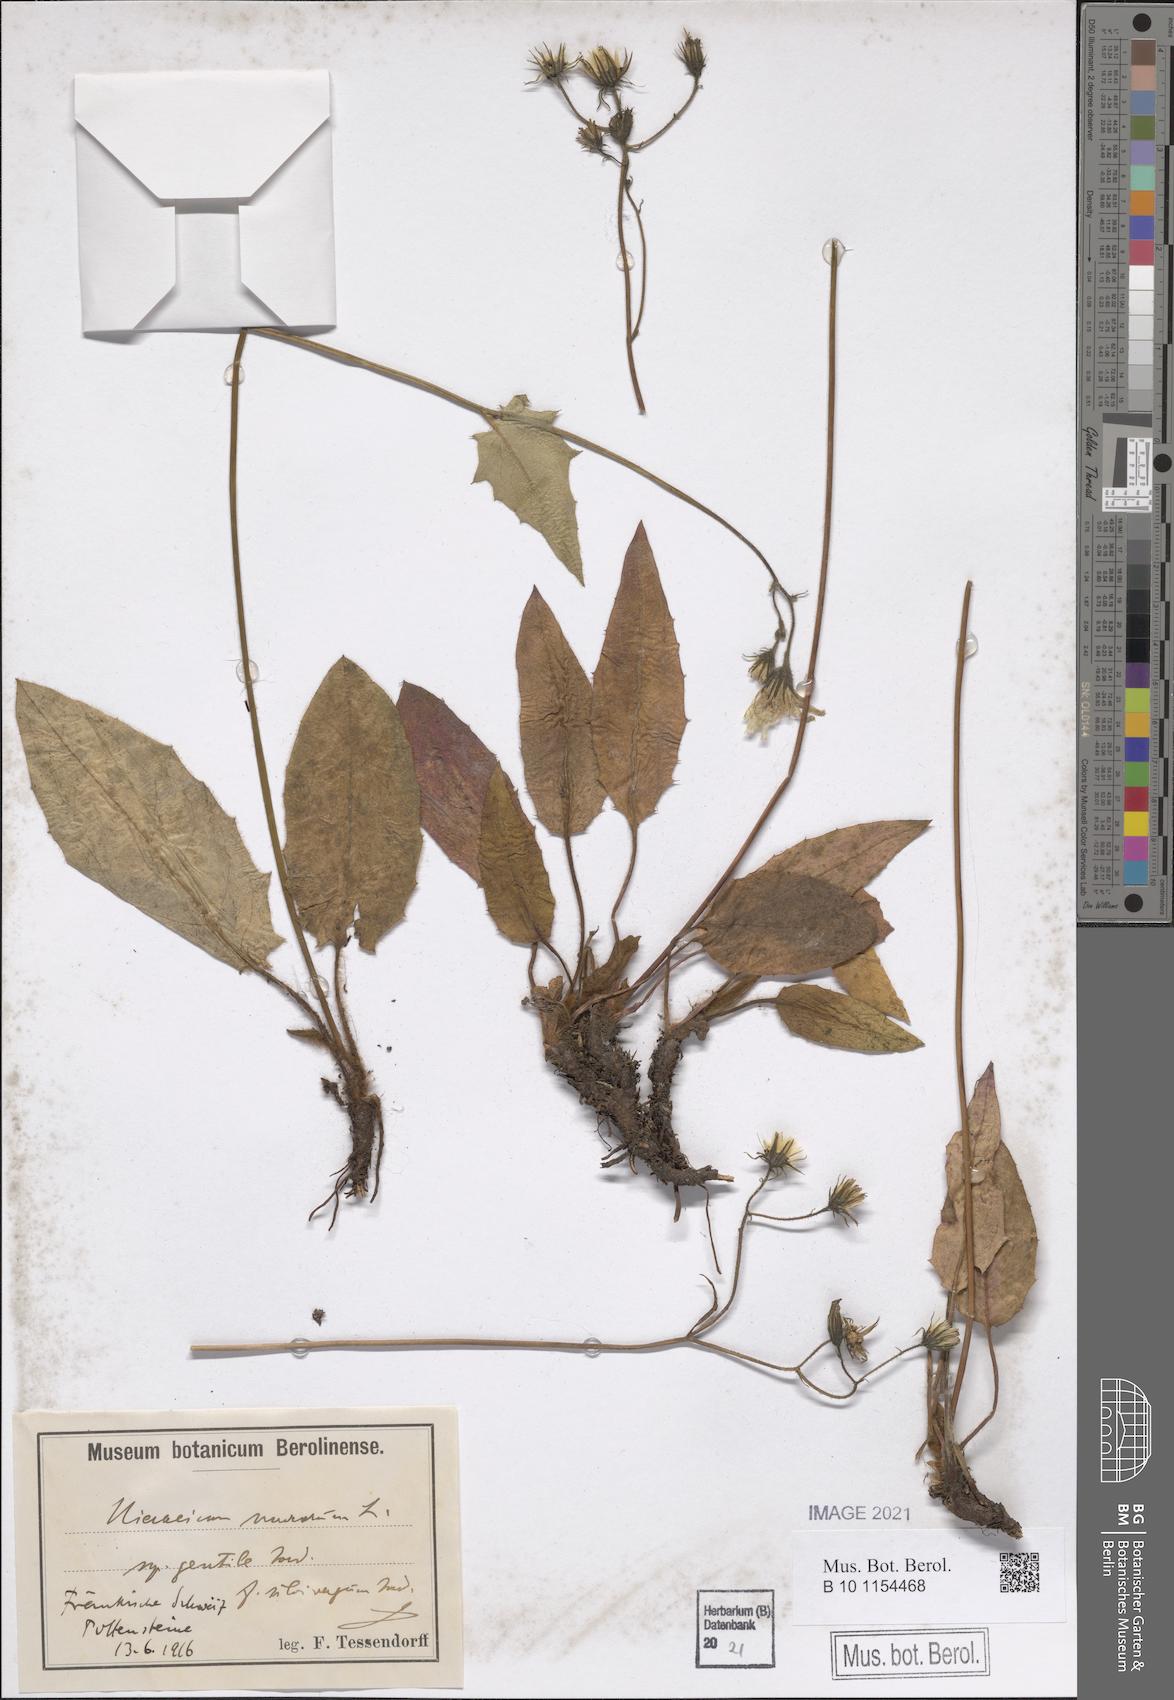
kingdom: Plantae
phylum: Tracheophyta
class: Magnoliopsida
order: Asterales
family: Asteraceae
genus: Hieracium
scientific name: Hieracium murorum
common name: Wall hawkweed
